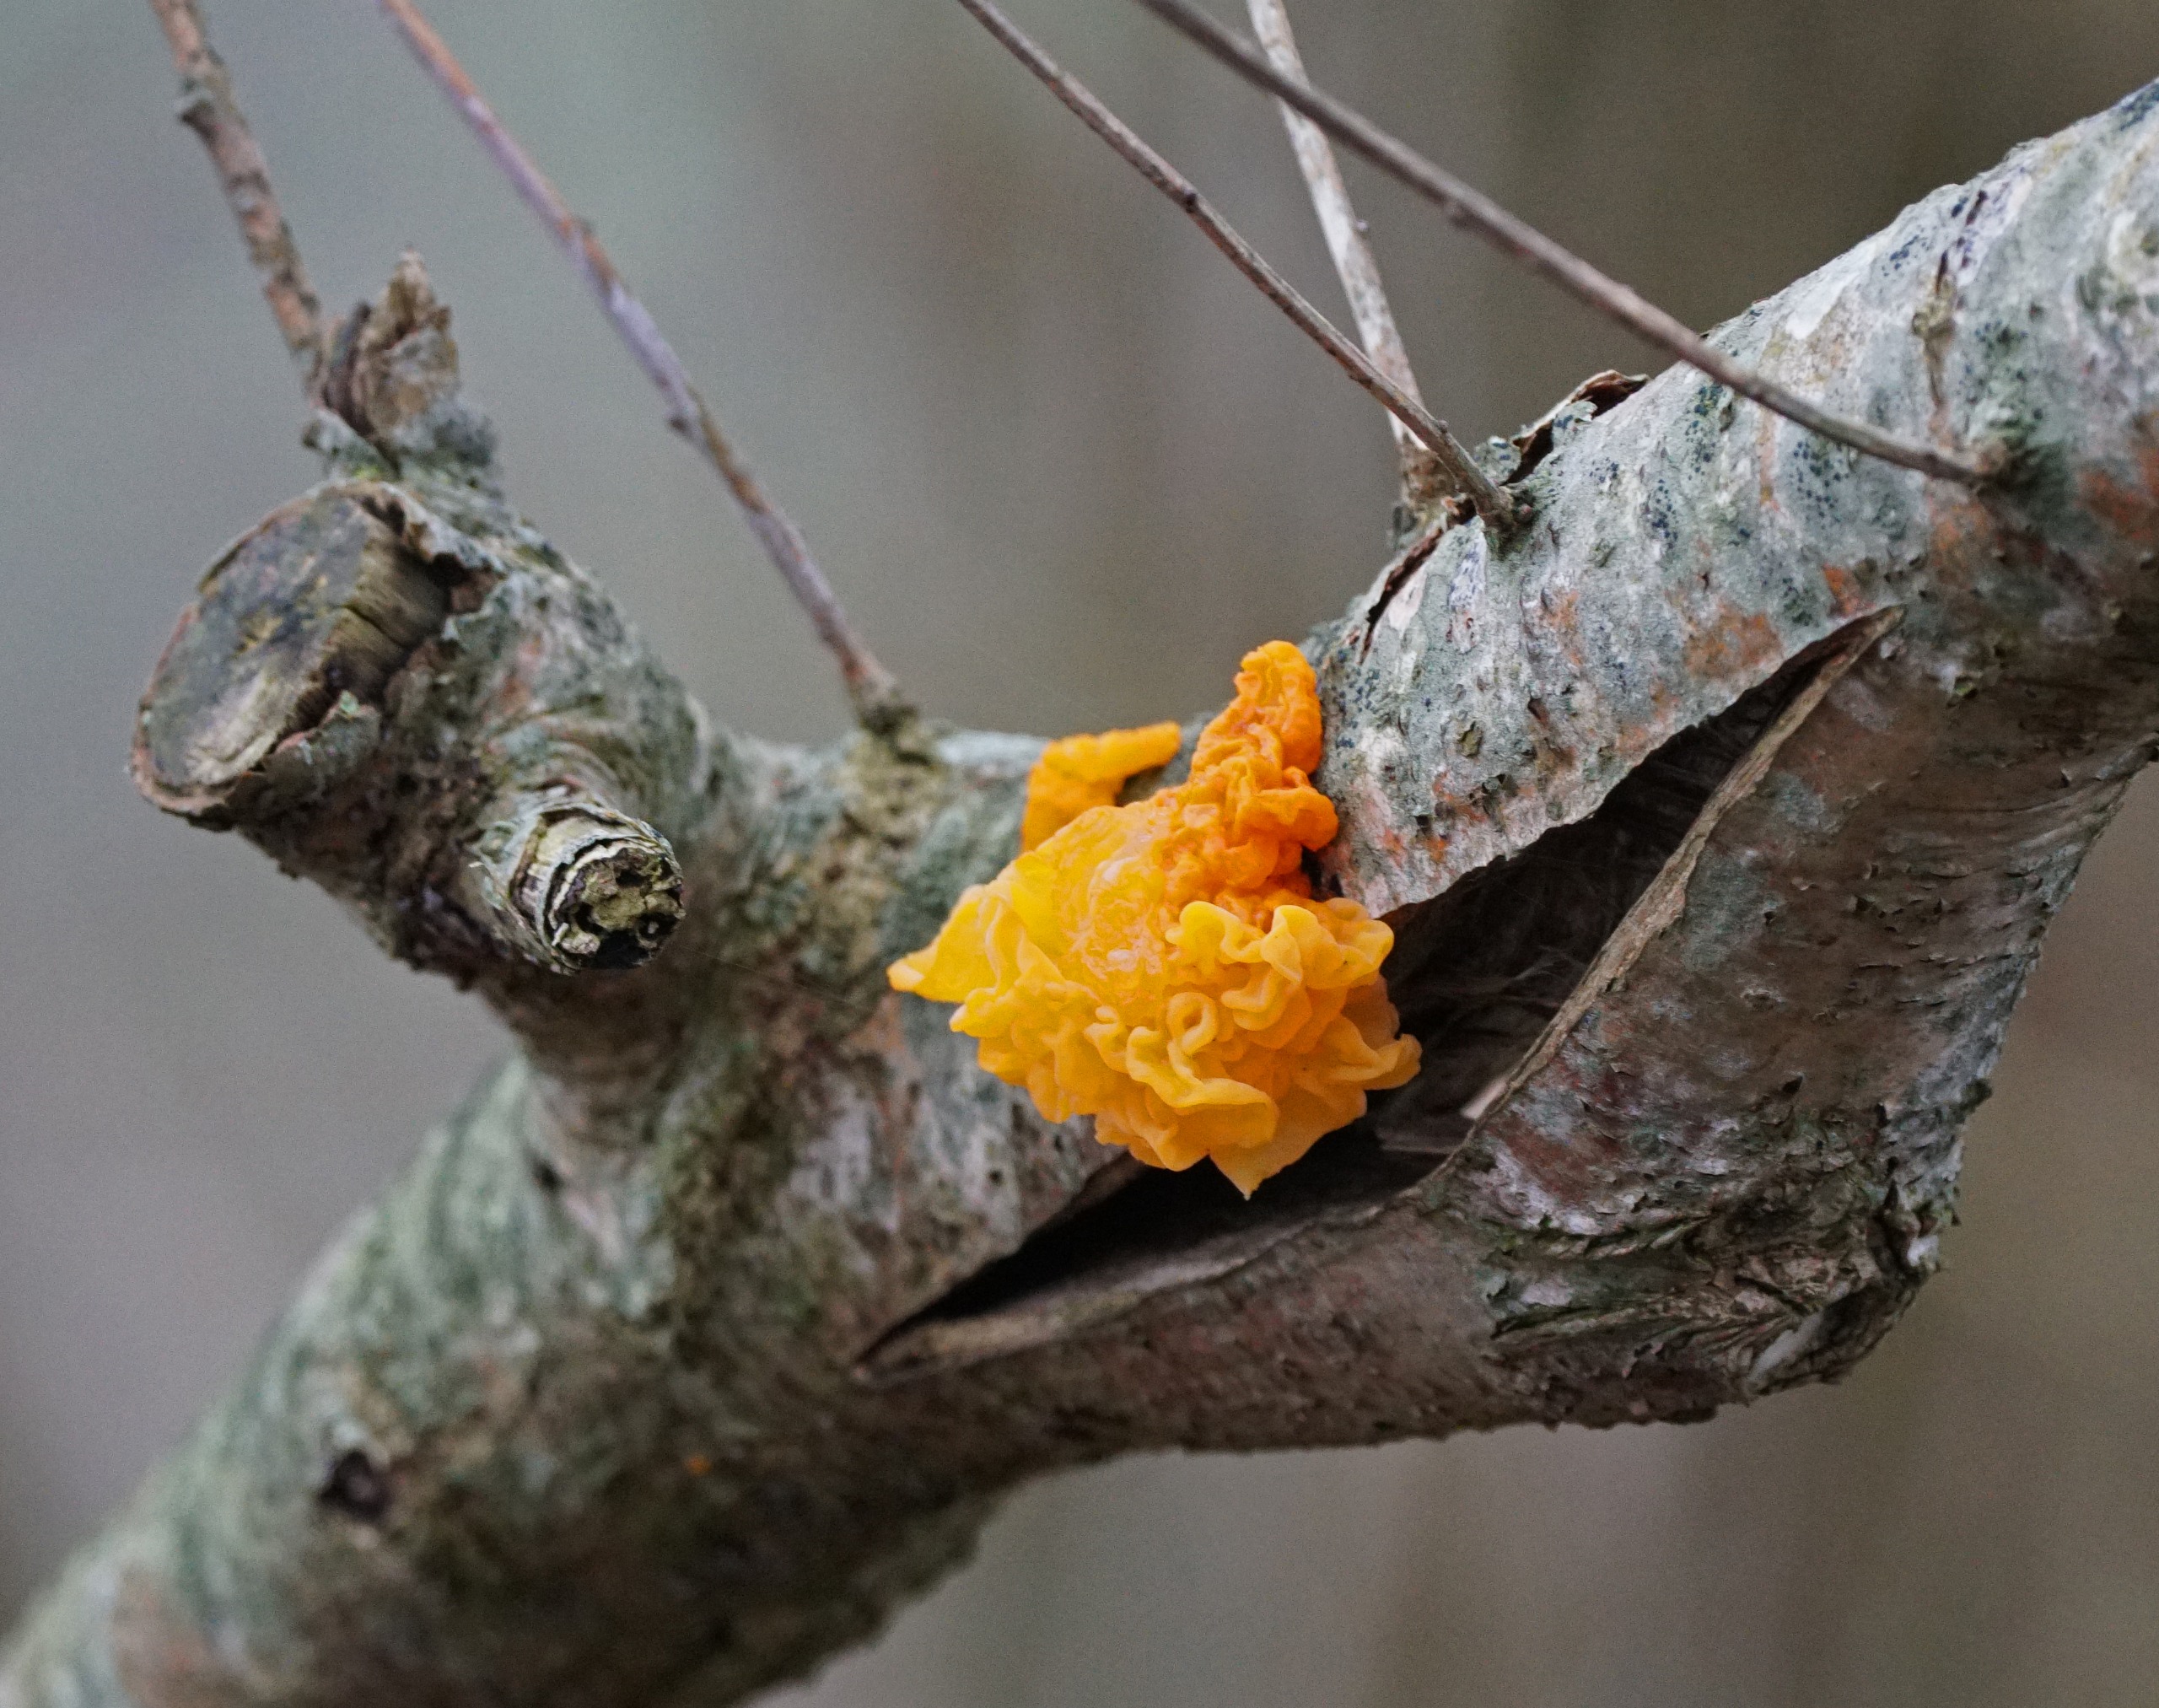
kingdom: Fungi
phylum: Basidiomycota
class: Tremellomycetes
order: Tremellales
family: Tremellaceae
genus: Tremella
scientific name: Tremella mesenterica
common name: Gul bævresvamp
